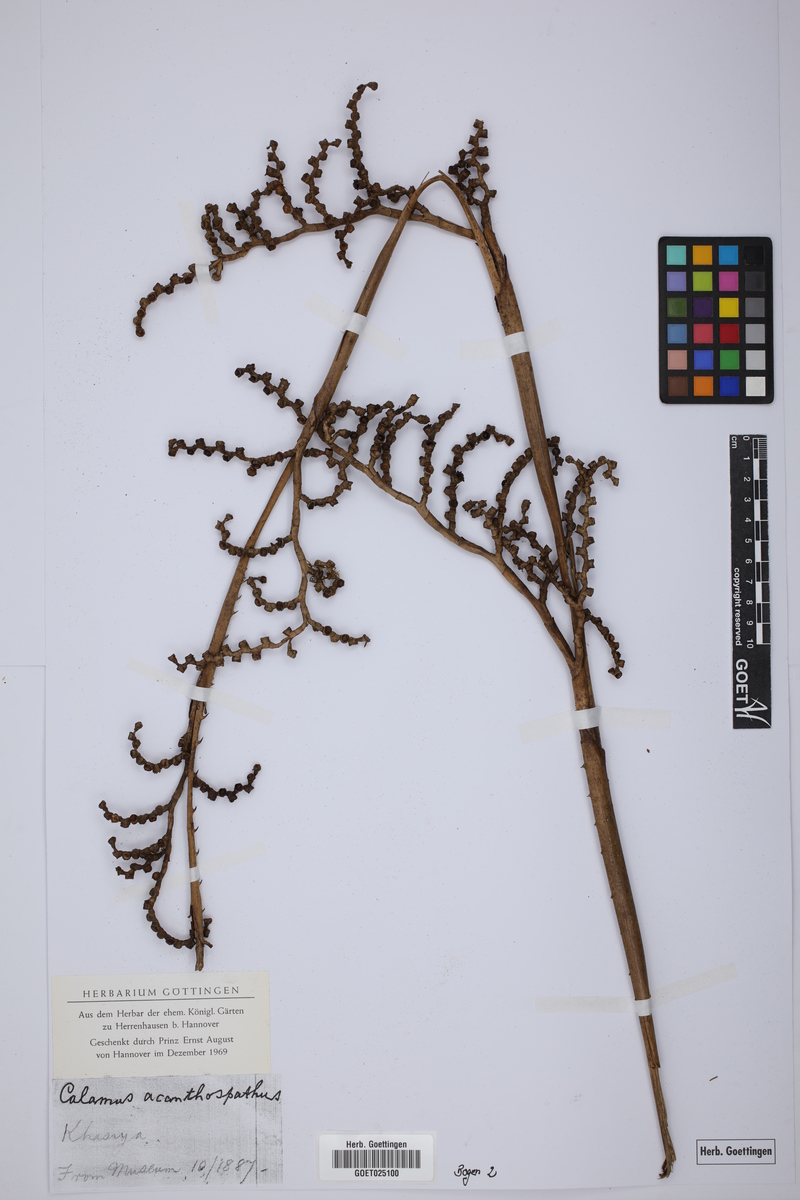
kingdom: Plantae
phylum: Tracheophyta
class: Liliopsida
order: Arecales
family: Arecaceae
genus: Calamus
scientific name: Calamus acanthospathus
